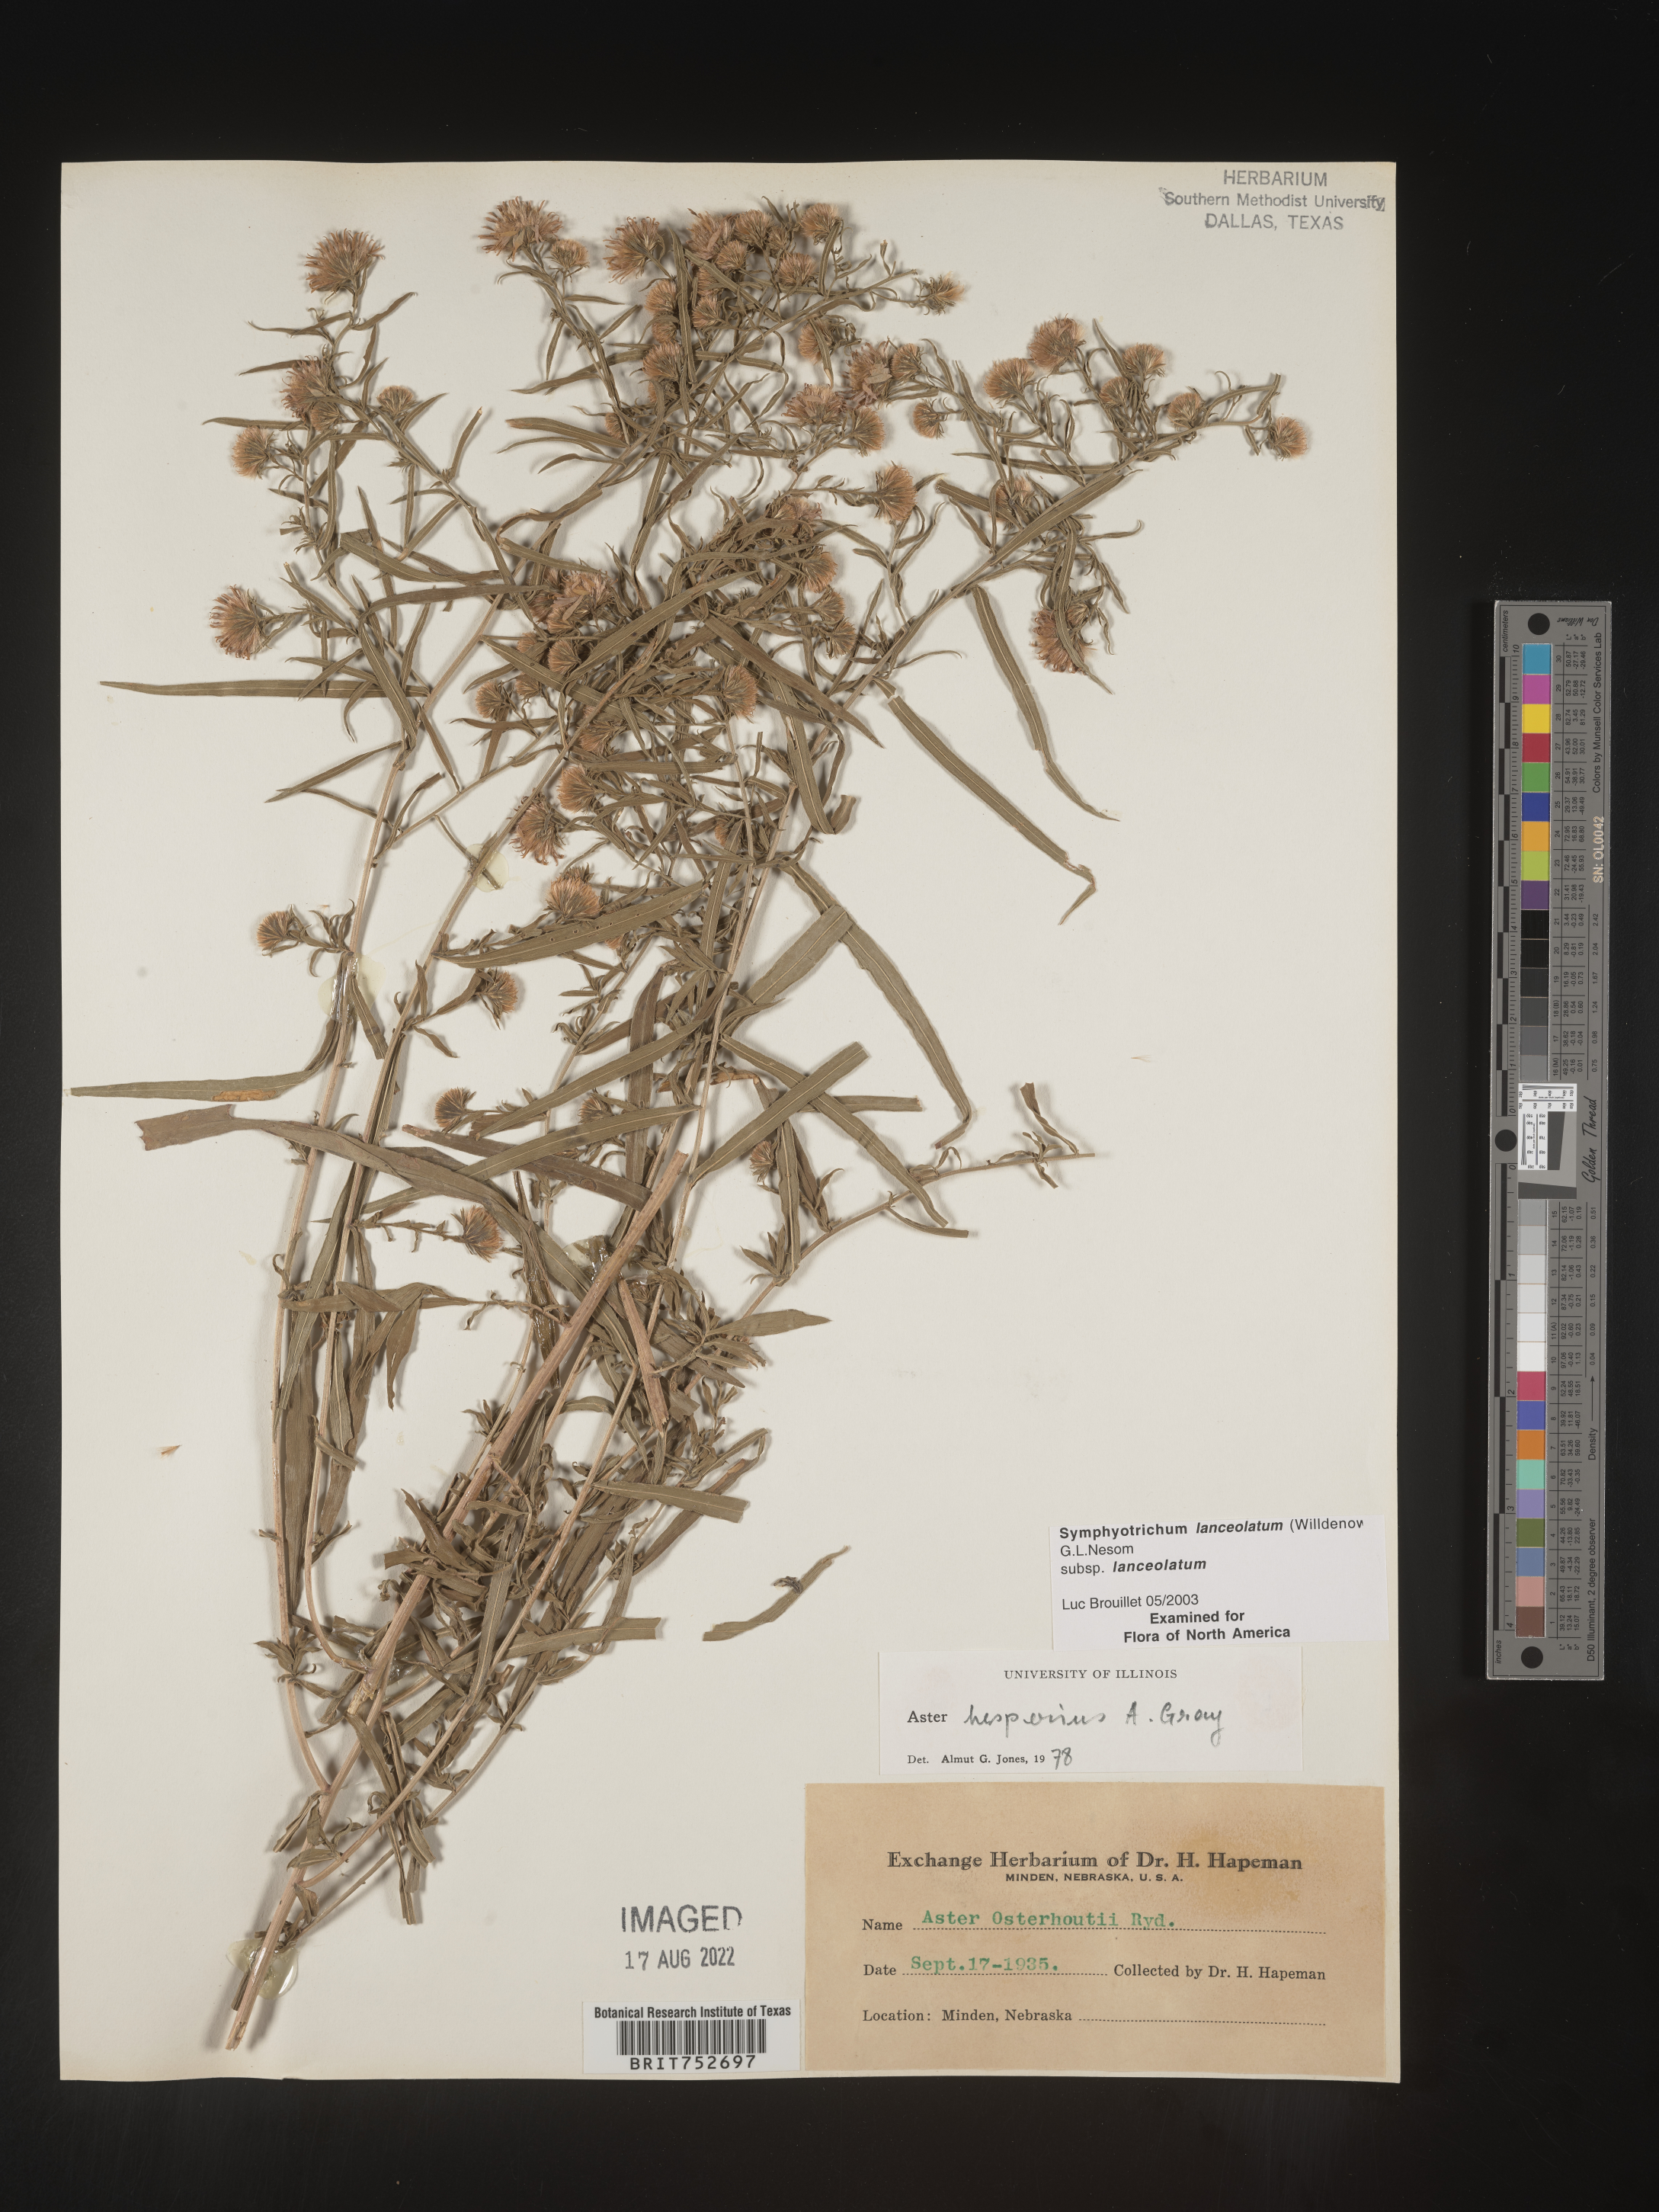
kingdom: Plantae
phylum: Tracheophyta
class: Magnoliopsida
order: Asterales
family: Asteraceae
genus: Symphyotrichum
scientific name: Symphyotrichum lanceolatum
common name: Panicled aster
